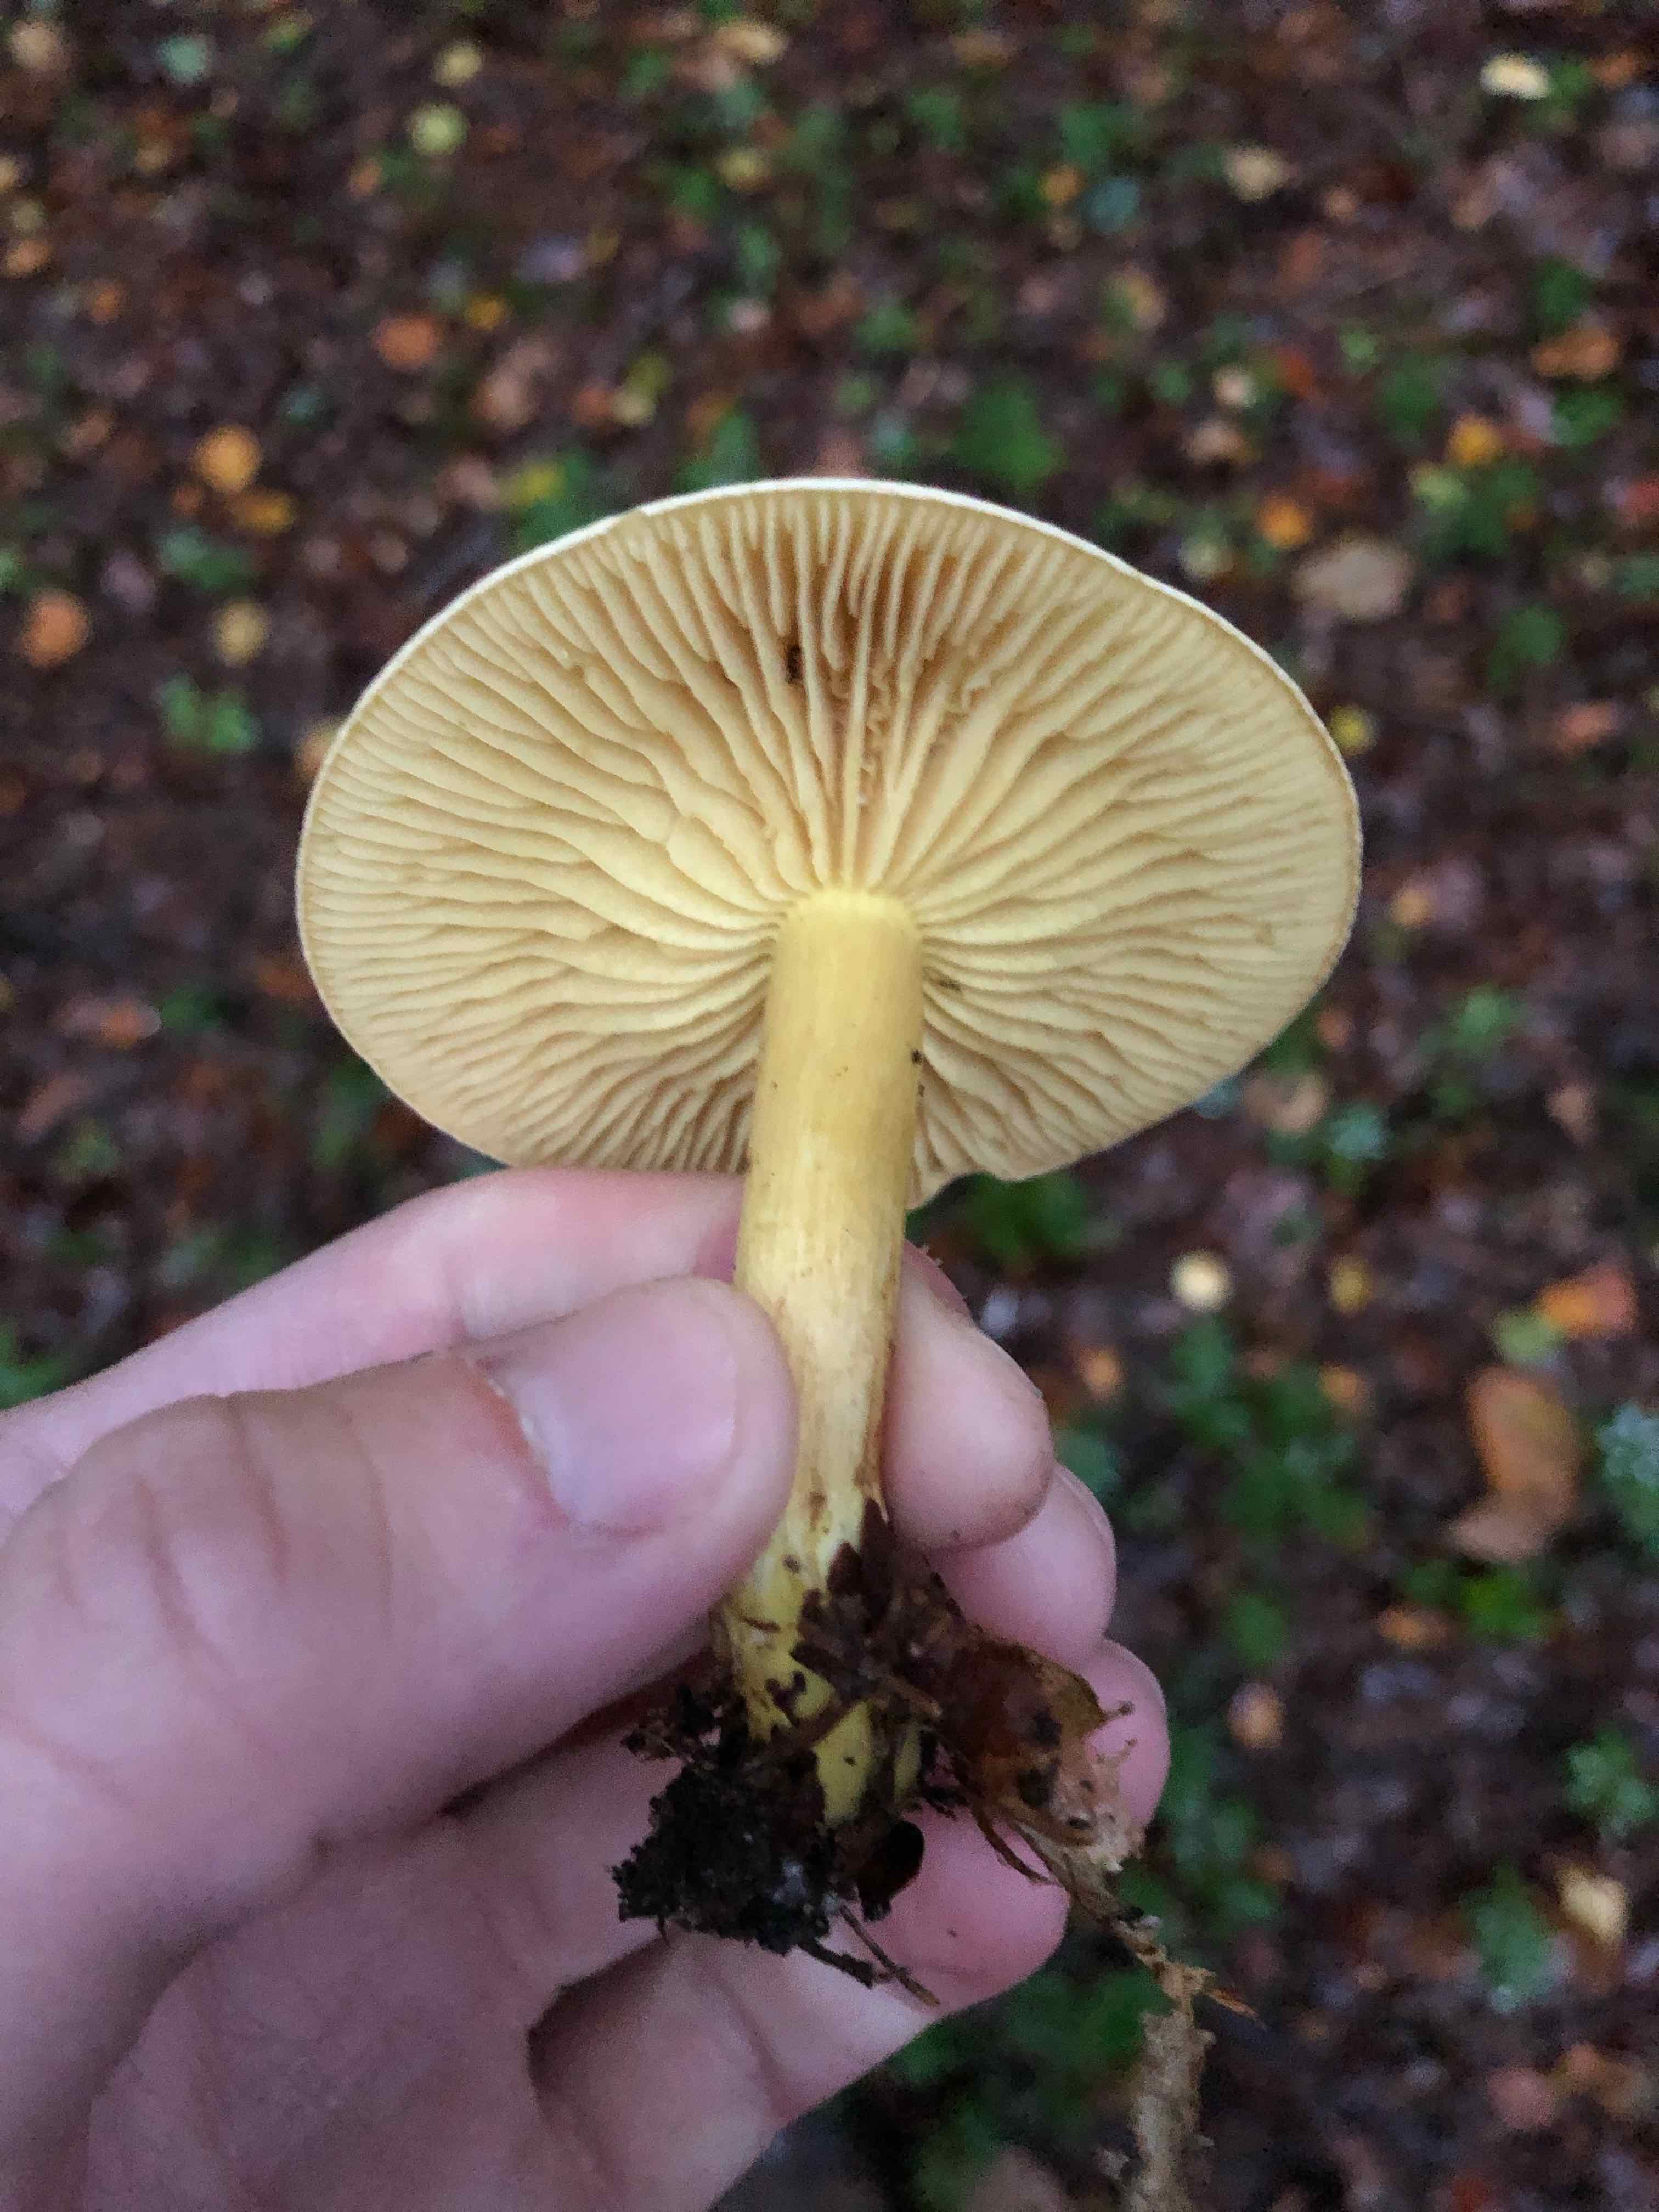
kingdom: Fungi
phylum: Basidiomycota
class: Agaricomycetes
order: Agaricales
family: Tricholomataceae
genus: Tricholoma
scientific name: Tricholoma sulphureum
